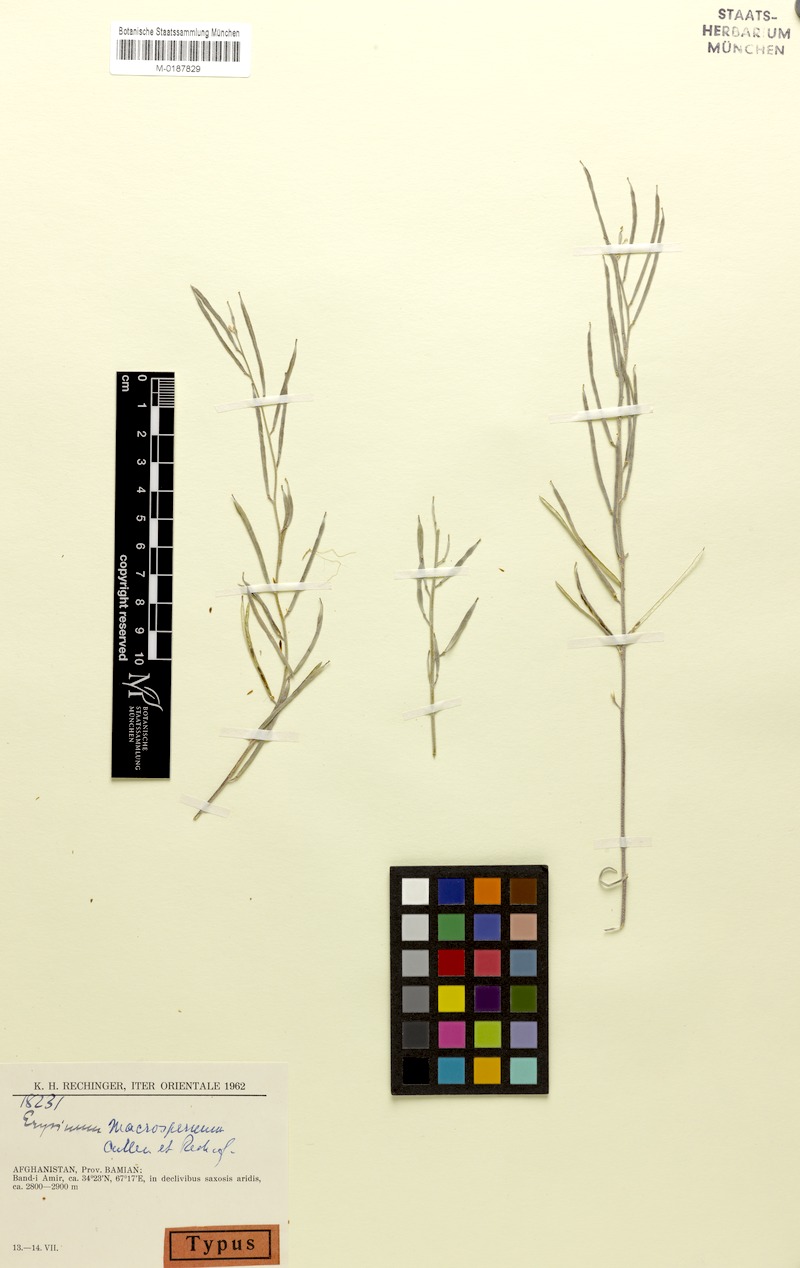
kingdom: Plantae
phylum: Tracheophyta
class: Magnoliopsida
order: Brassicales
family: Brassicaceae
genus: Erysimum
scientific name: Erysimum macrospermum
